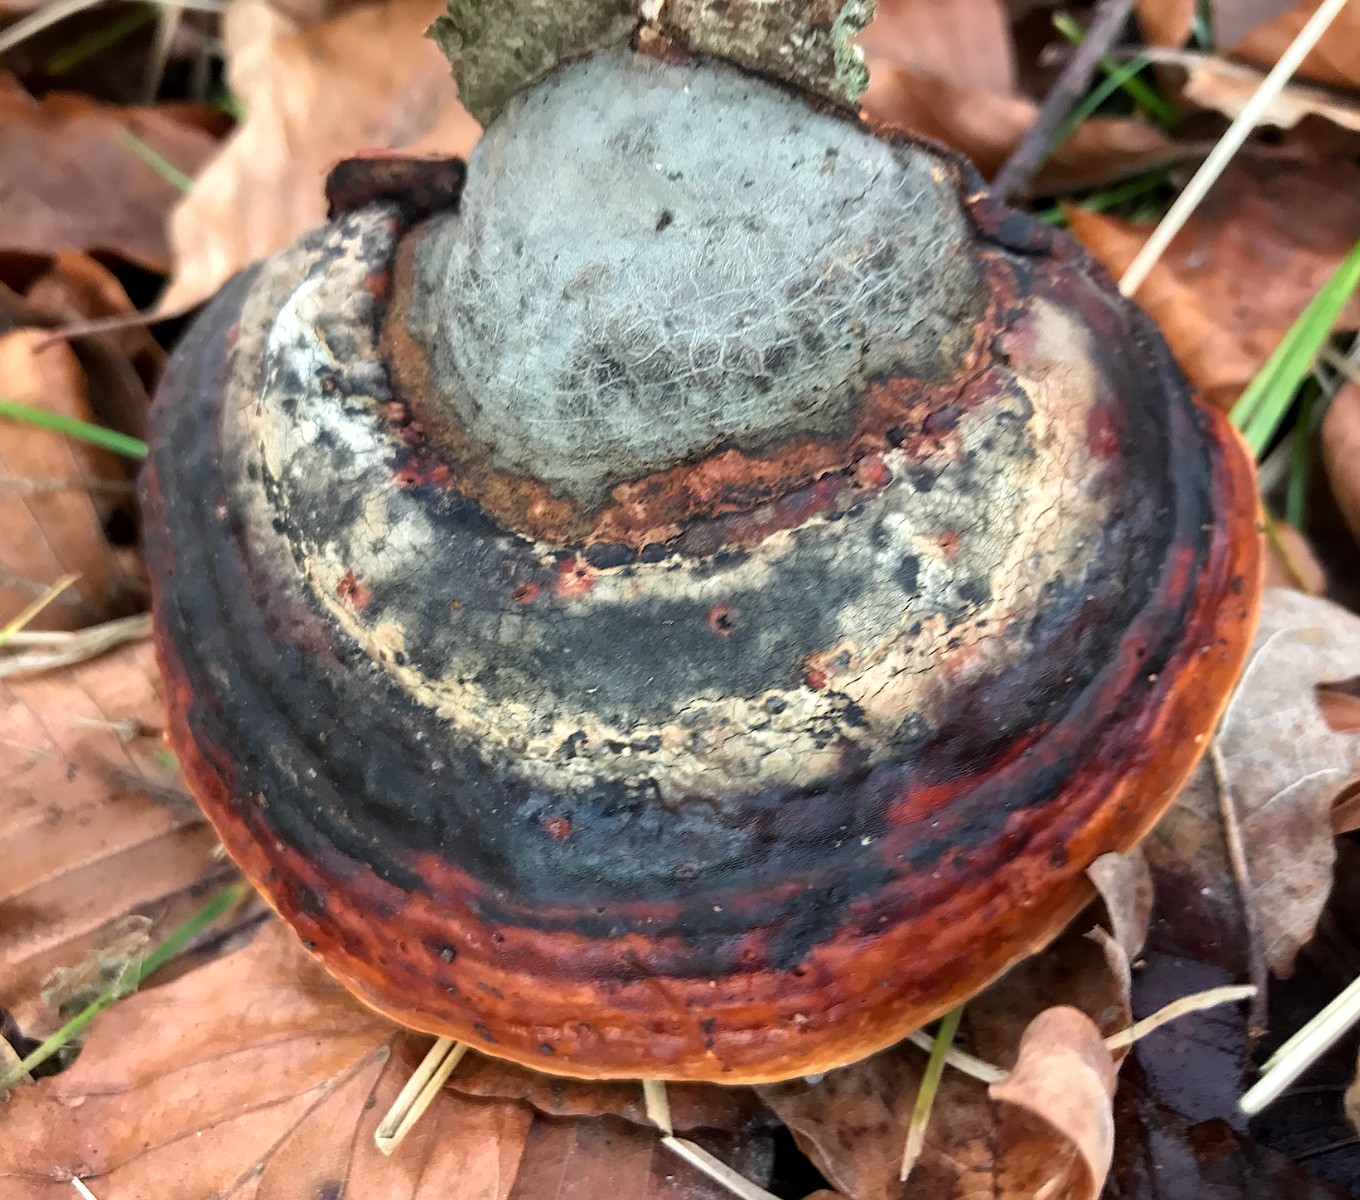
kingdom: Fungi
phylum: Basidiomycota
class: Agaricomycetes
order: Polyporales
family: Fomitopsidaceae
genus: Fomitopsis
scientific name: Fomitopsis pinicola
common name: randbæltet hovporesvamp
